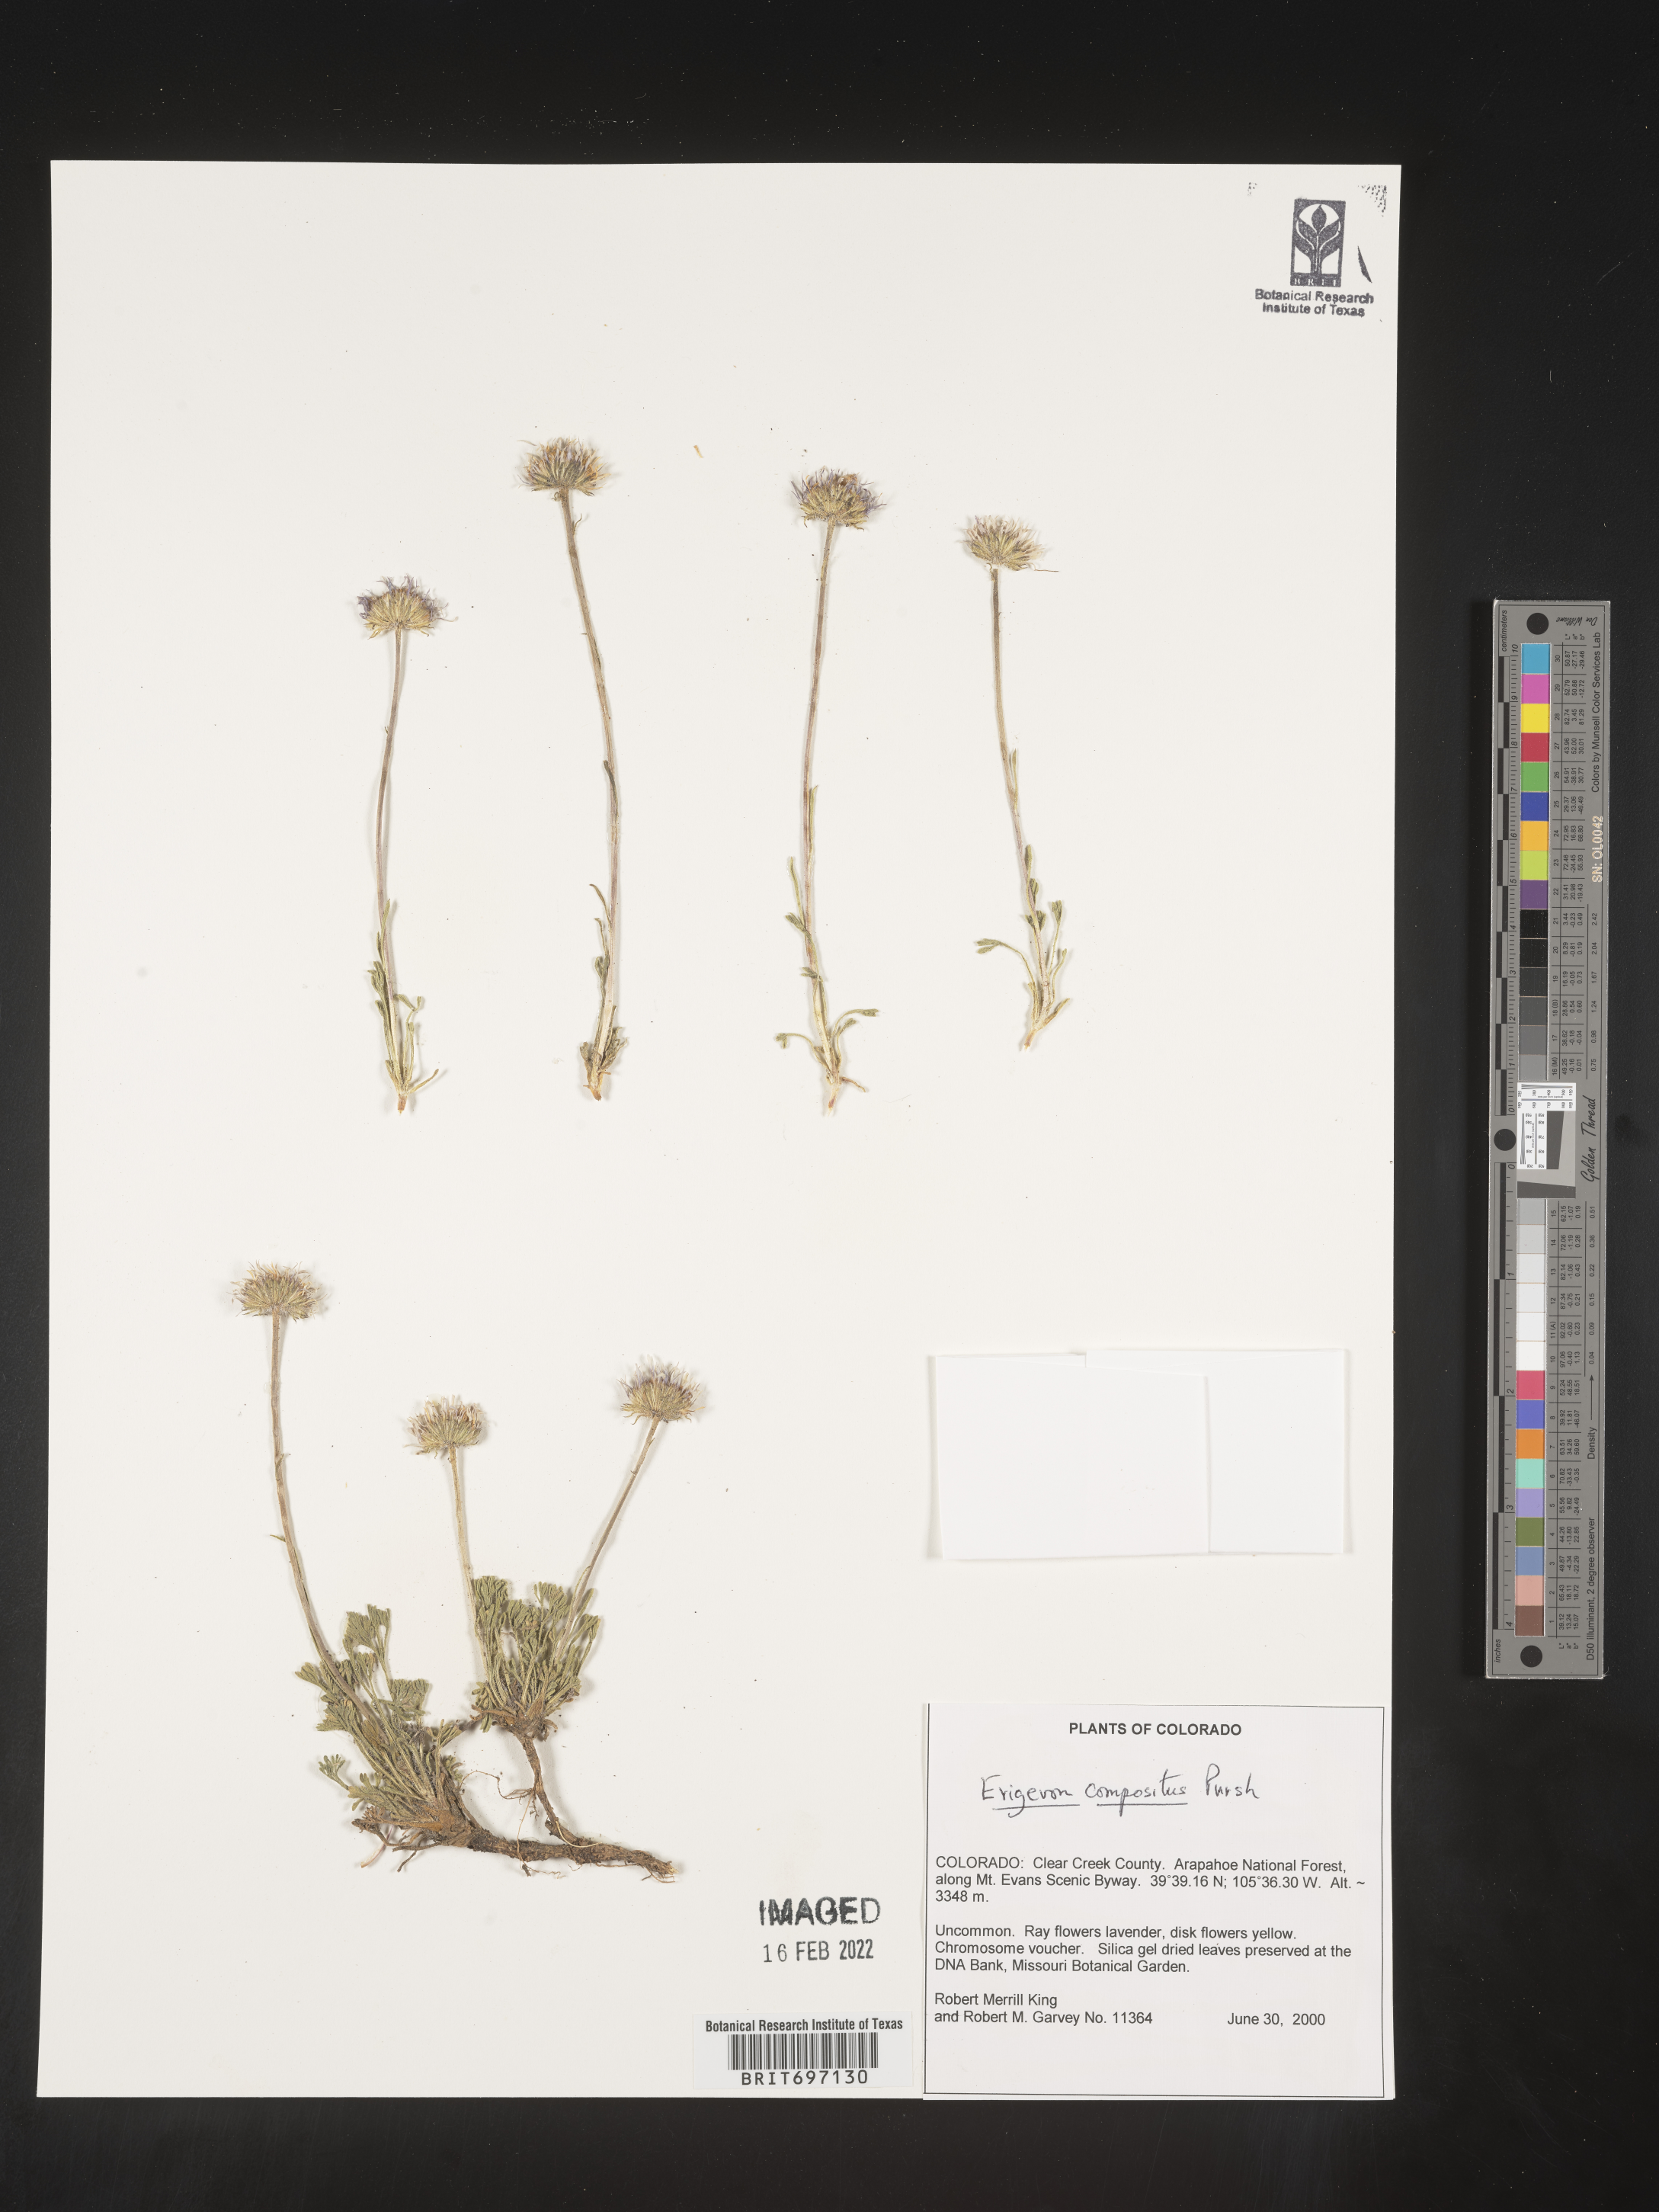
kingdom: Plantae
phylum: Tracheophyta
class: Magnoliopsida
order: Asterales
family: Asteraceae
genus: Erigeron
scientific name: Erigeron compositus
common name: Dwarf mountain fleabane
